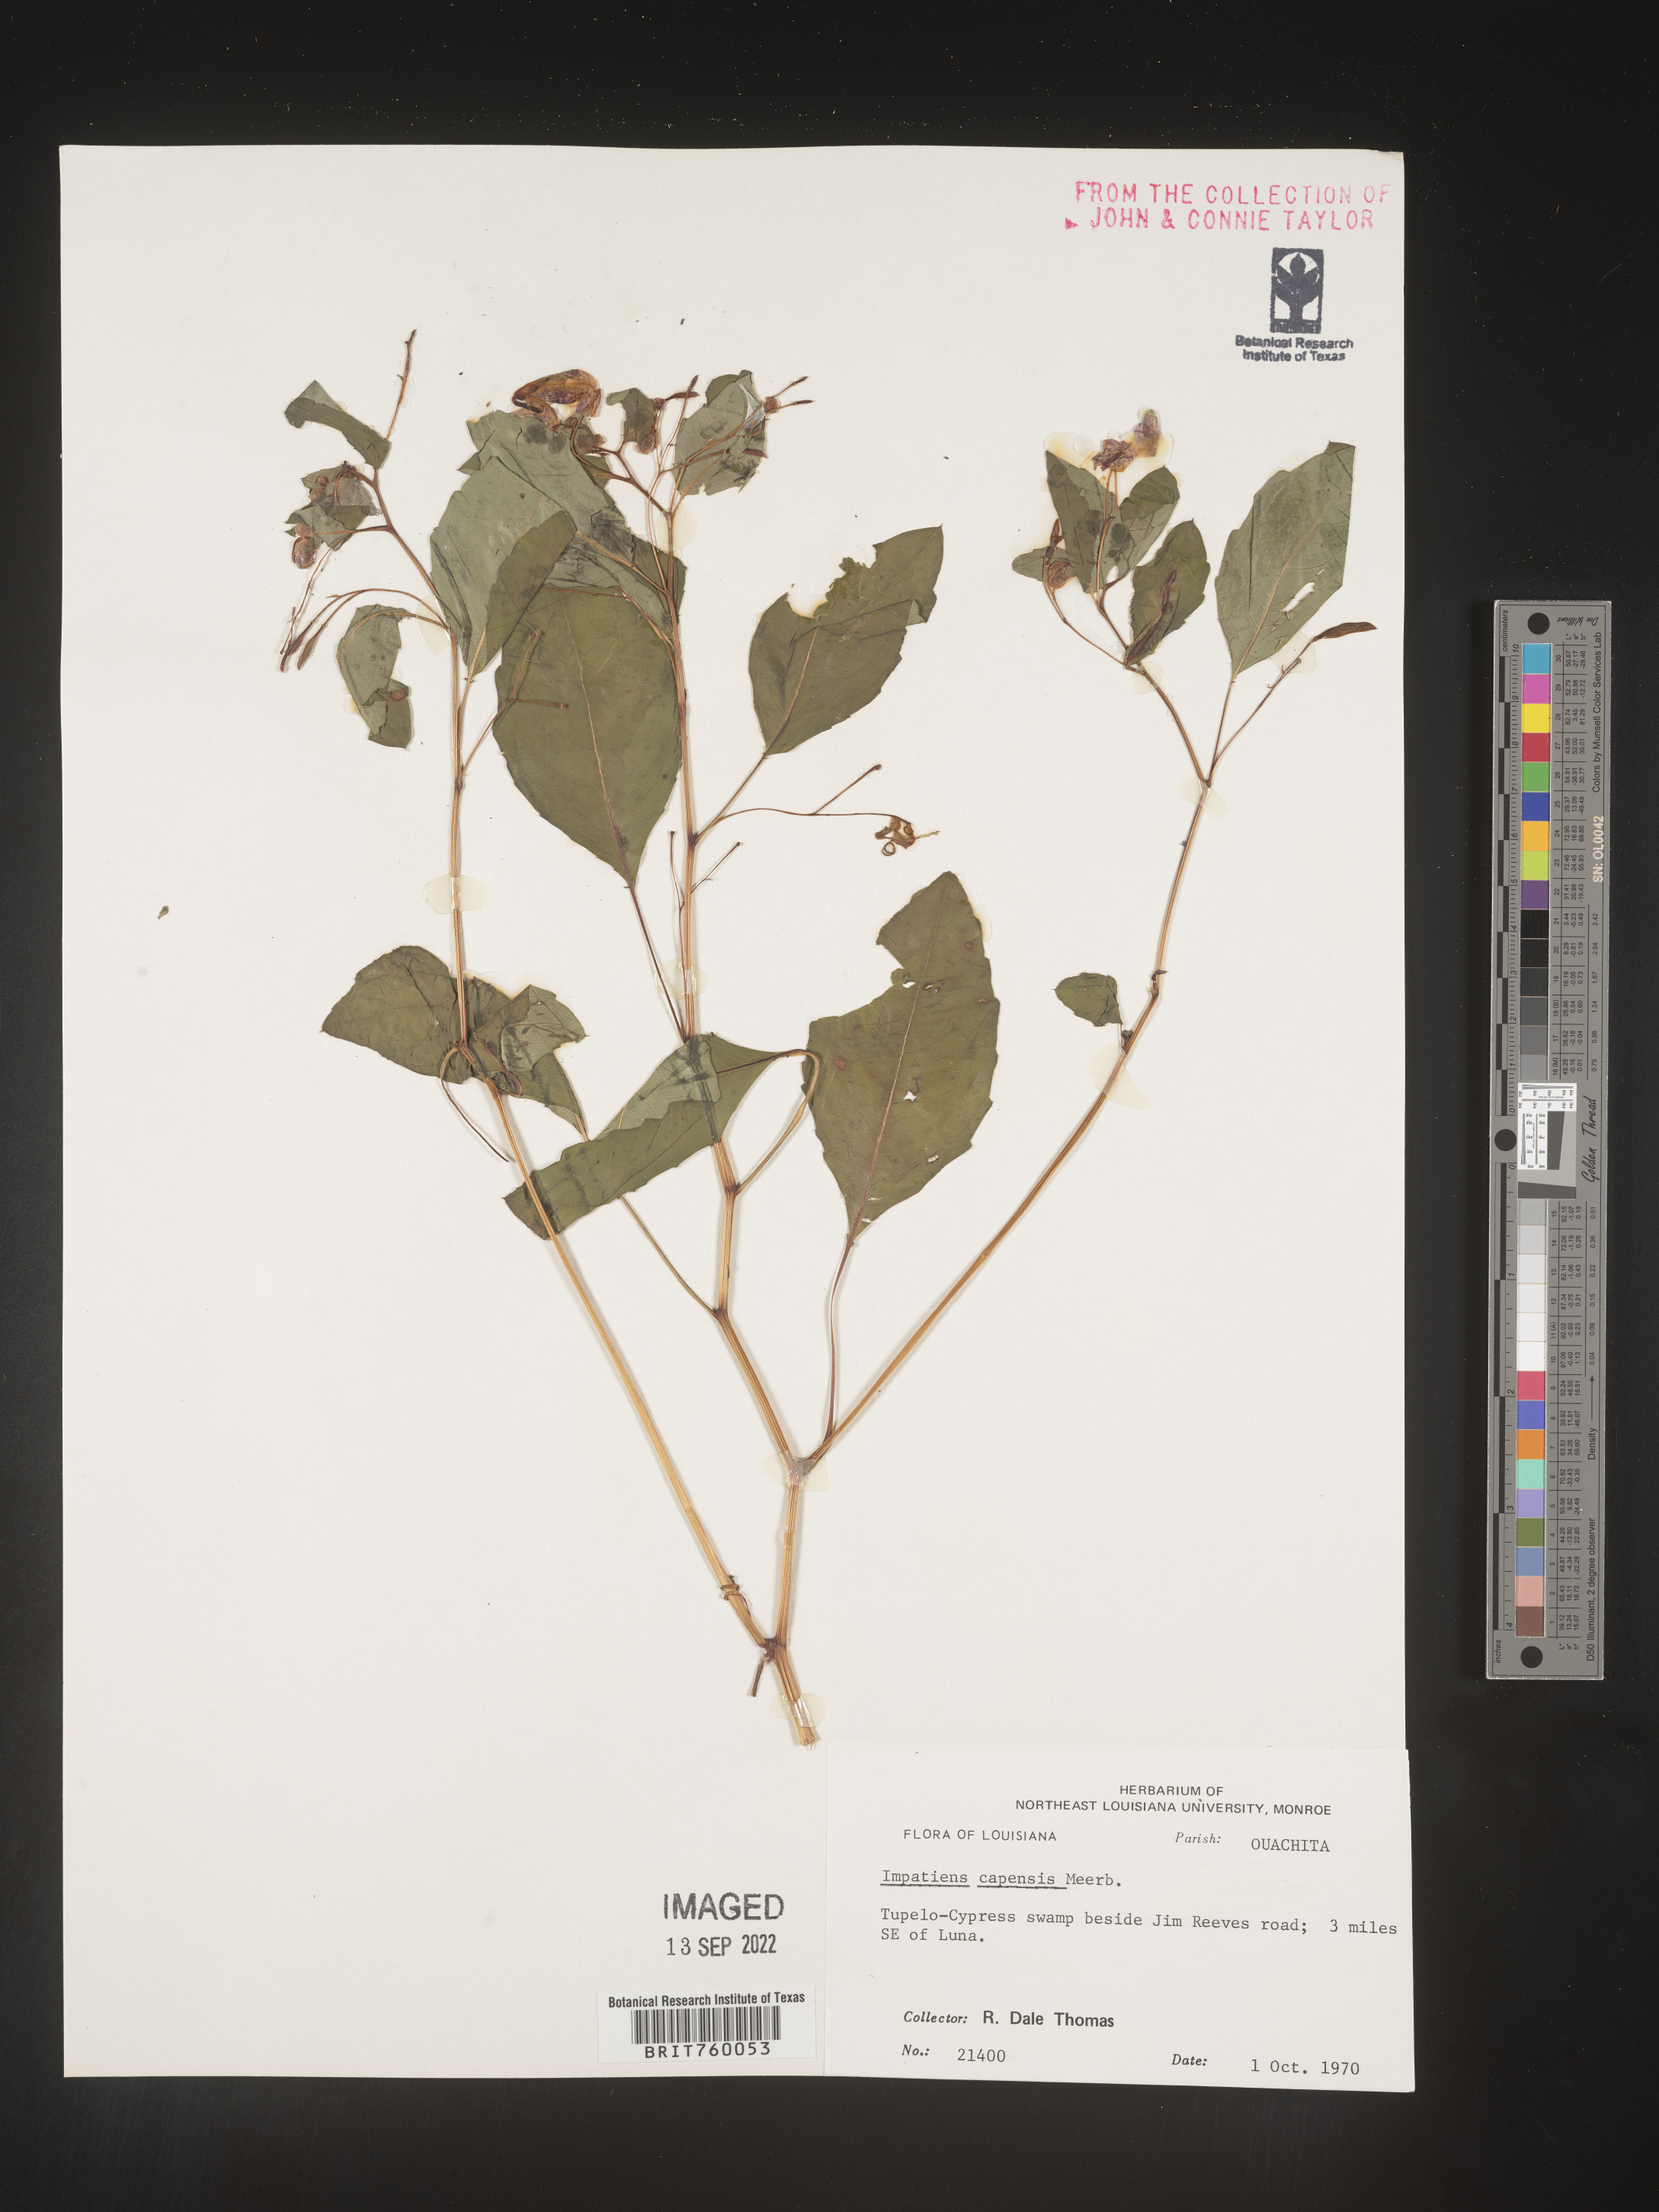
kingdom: Plantae
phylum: Tracheophyta
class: Magnoliopsida
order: Ericales
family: Balsaminaceae
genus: Impatiens
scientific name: Impatiens capensis
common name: Orange balsam
